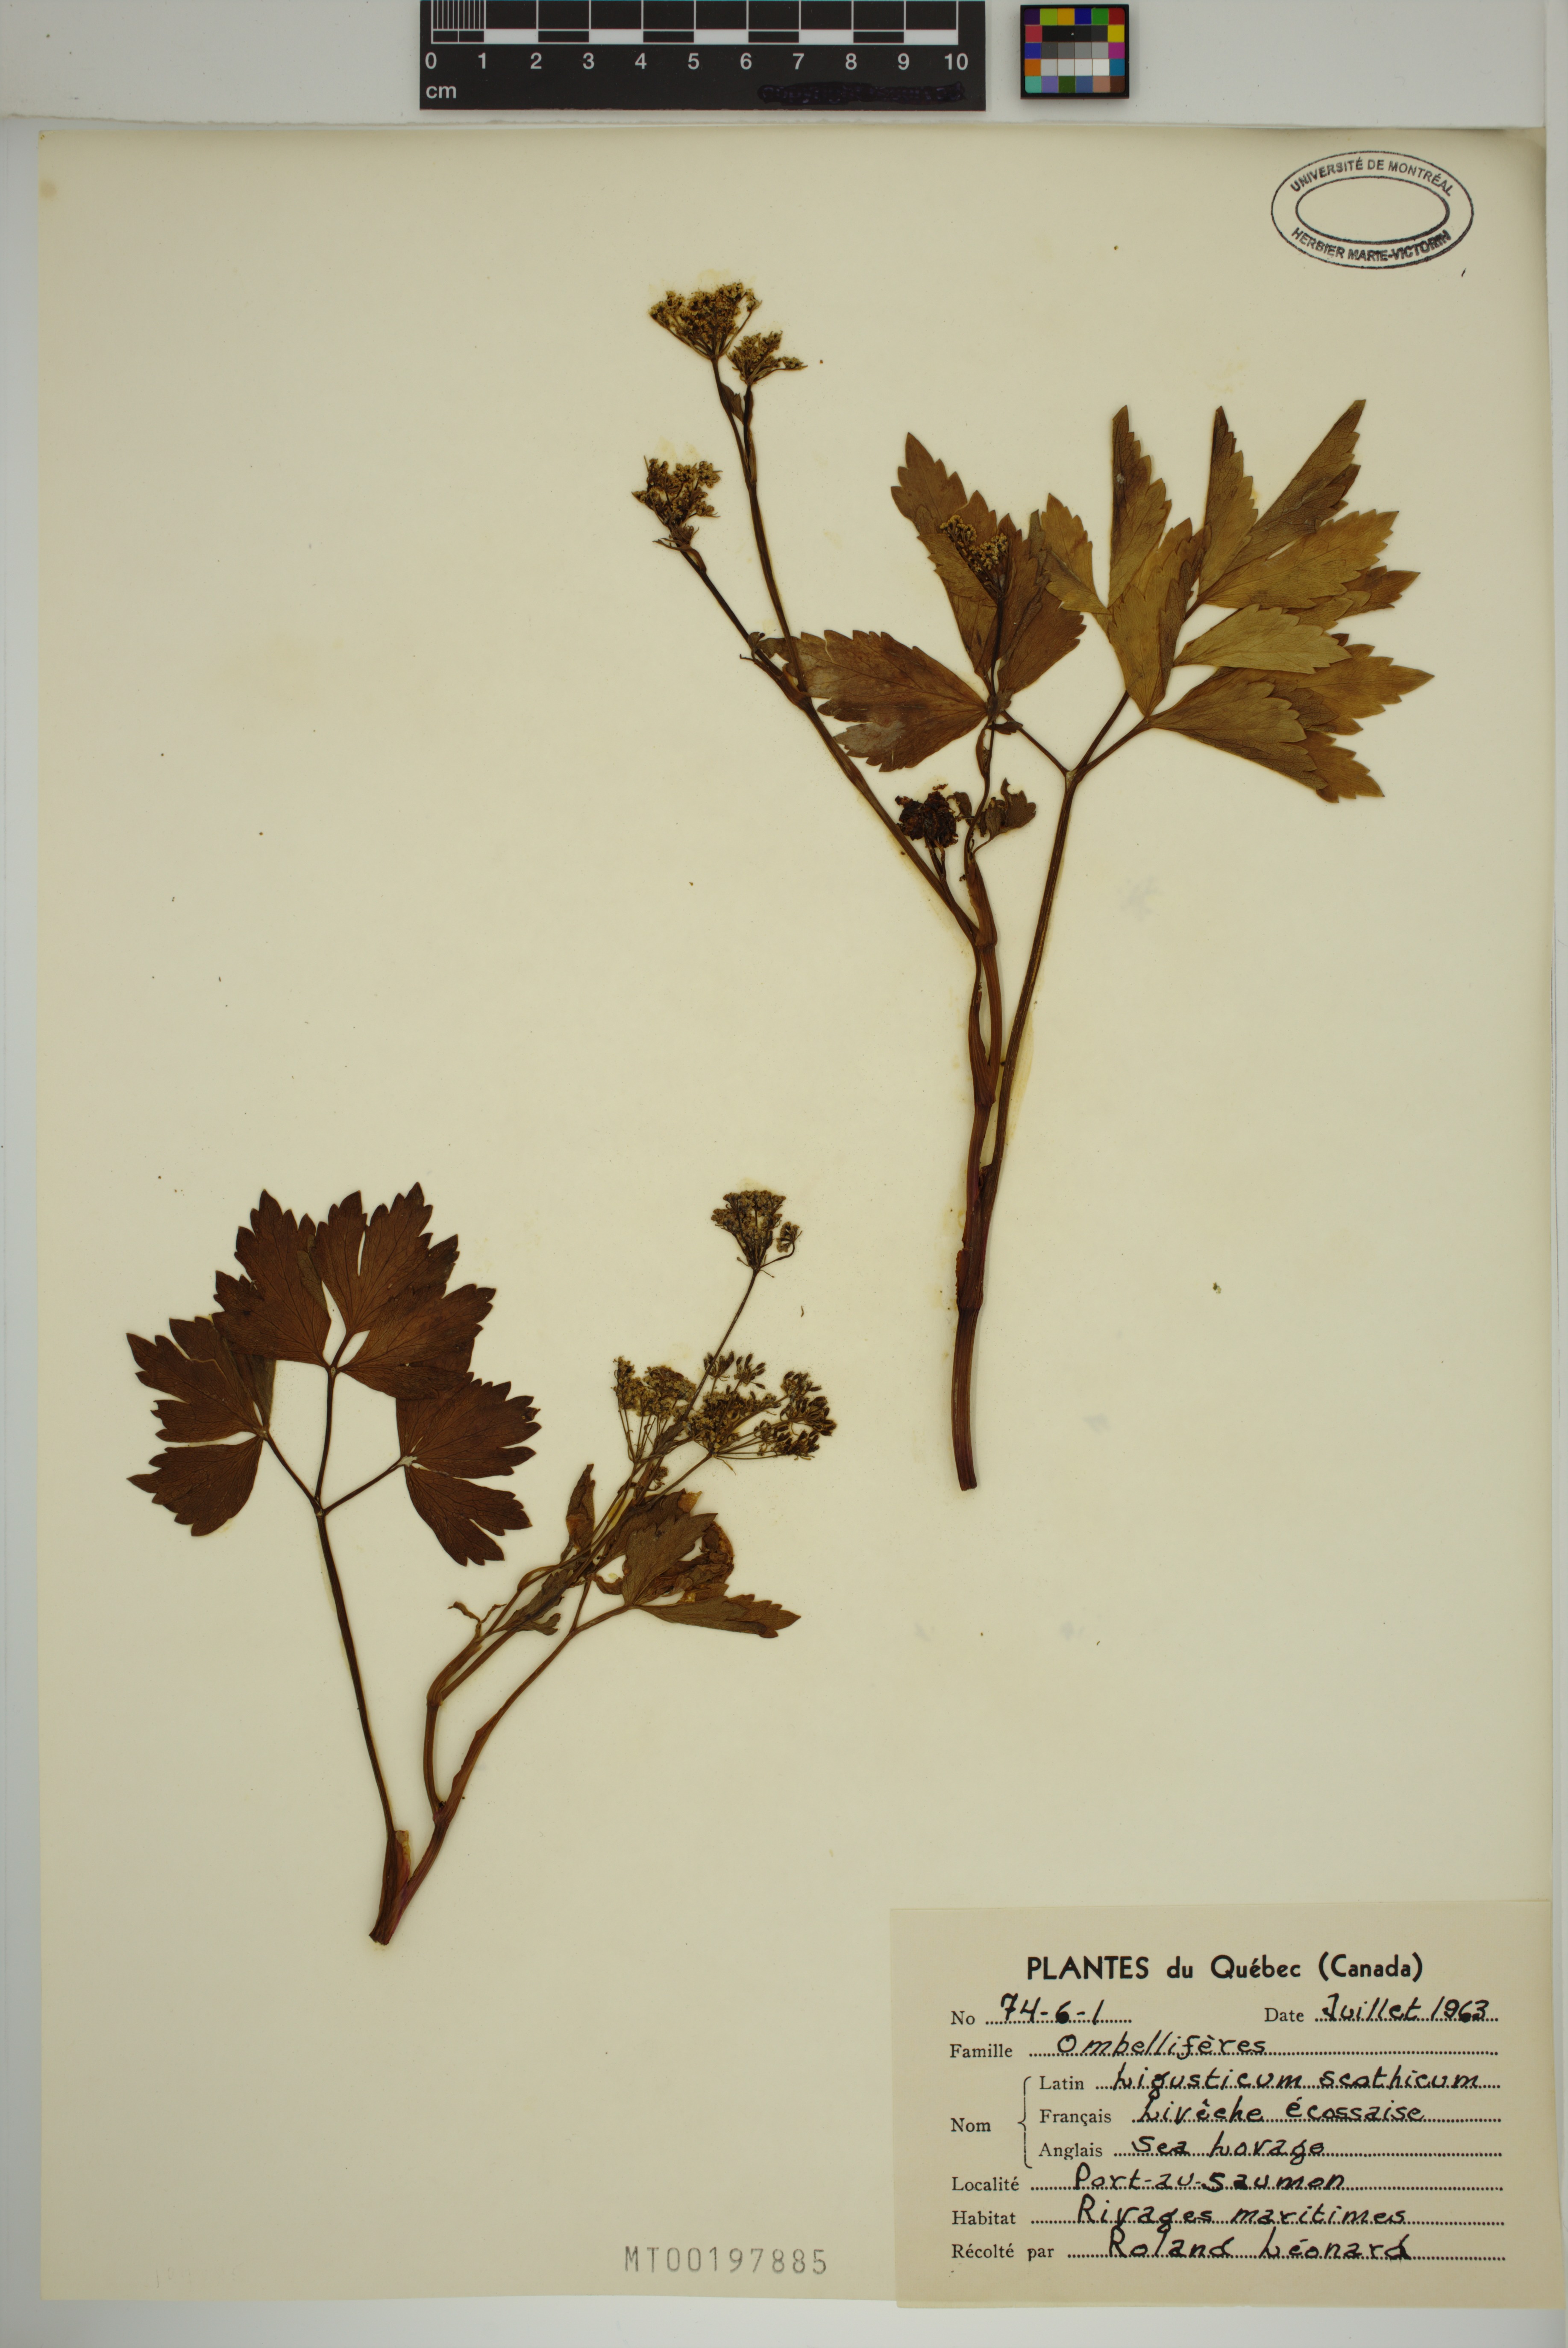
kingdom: Plantae
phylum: Tracheophyta
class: Magnoliopsida
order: Apiales
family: Apiaceae
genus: Ligusticum
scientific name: Ligusticum scothicum
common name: Beach lovage
